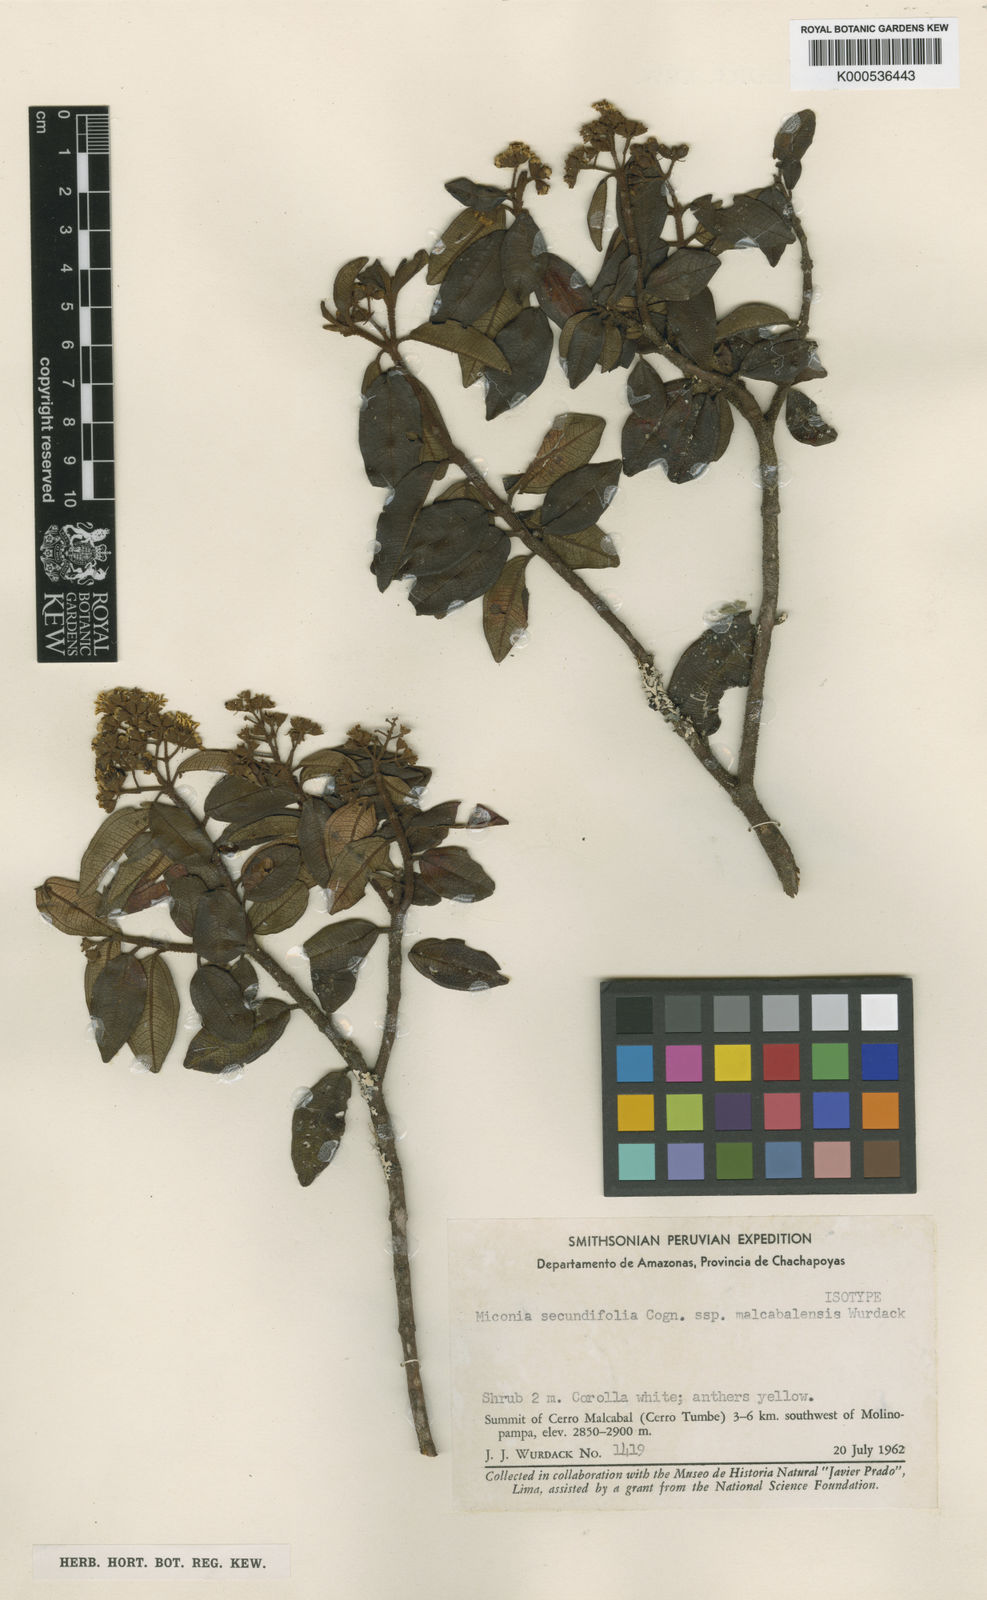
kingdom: Plantae
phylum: Tracheophyta
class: Magnoliopsida
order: Myrtales
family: Melastomataceae
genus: Miconia
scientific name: Miconia rigida
